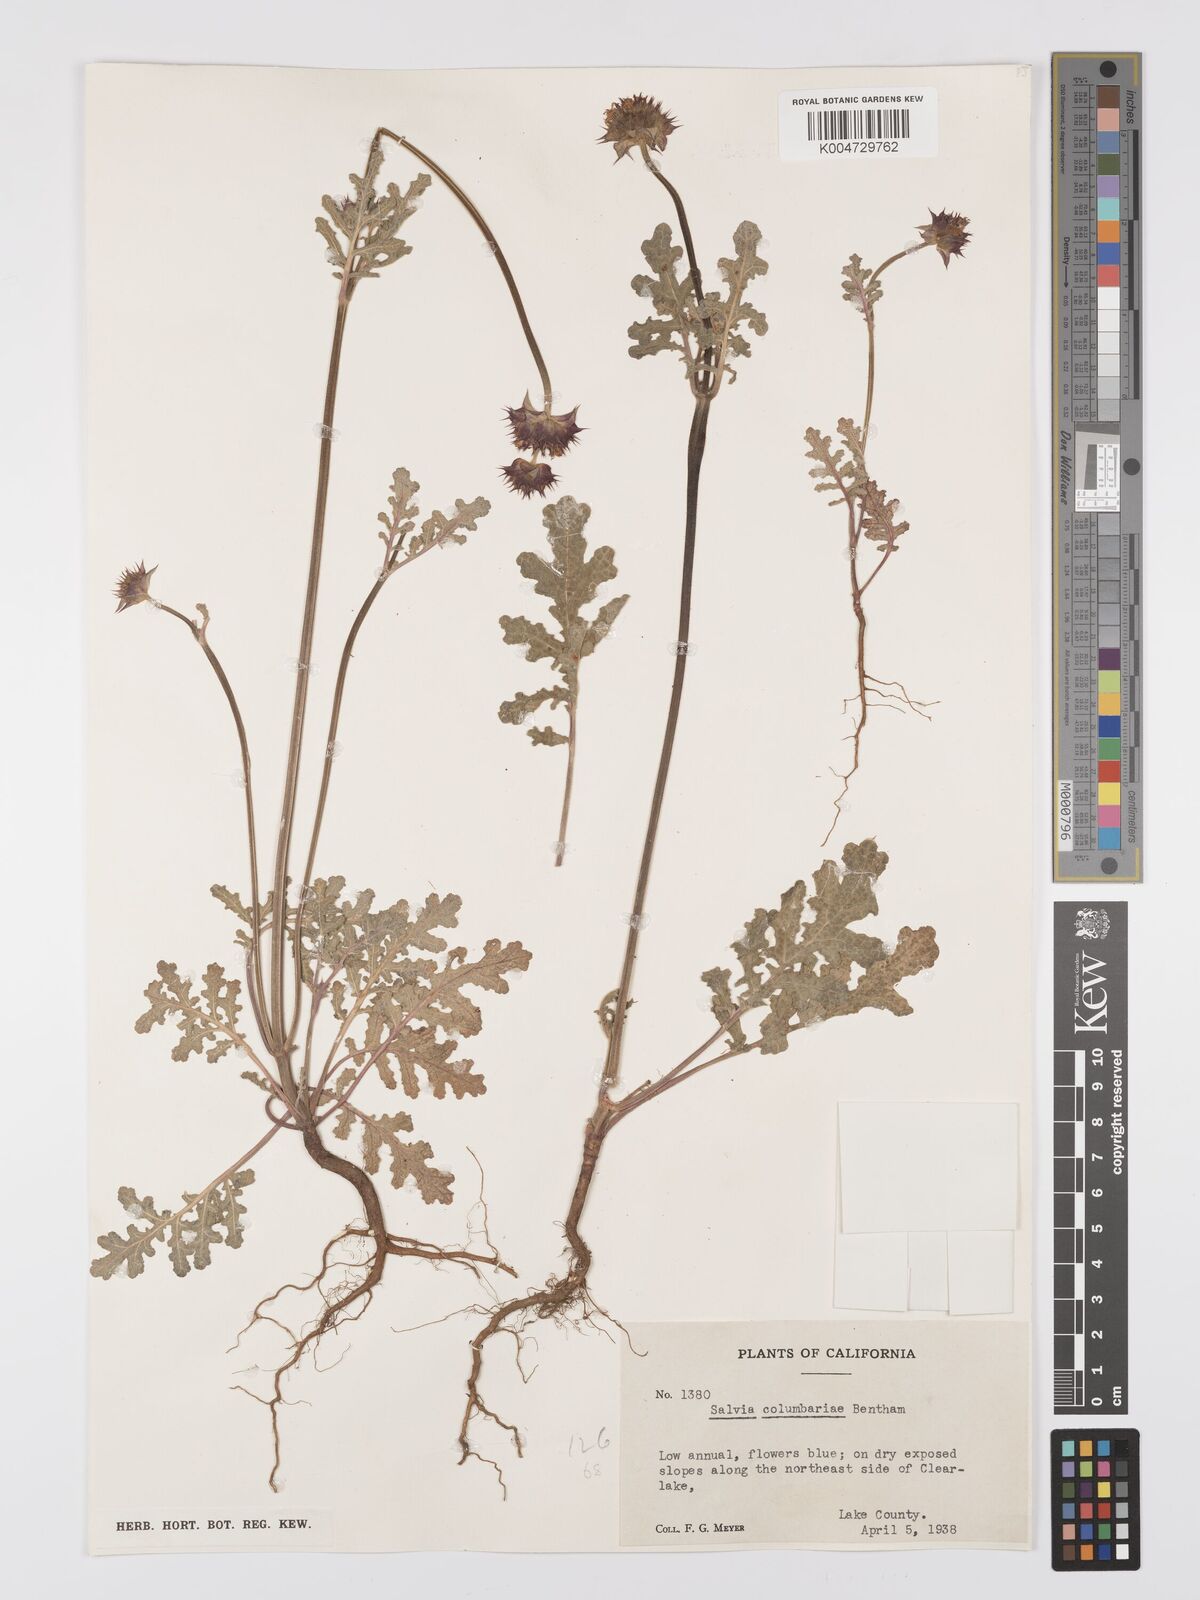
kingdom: Plantae
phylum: Tracheophyta
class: Magnoliopsida
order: Lamiales
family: Lamiaceae
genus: Salvia
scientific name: Salvia columbariae
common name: Chia
